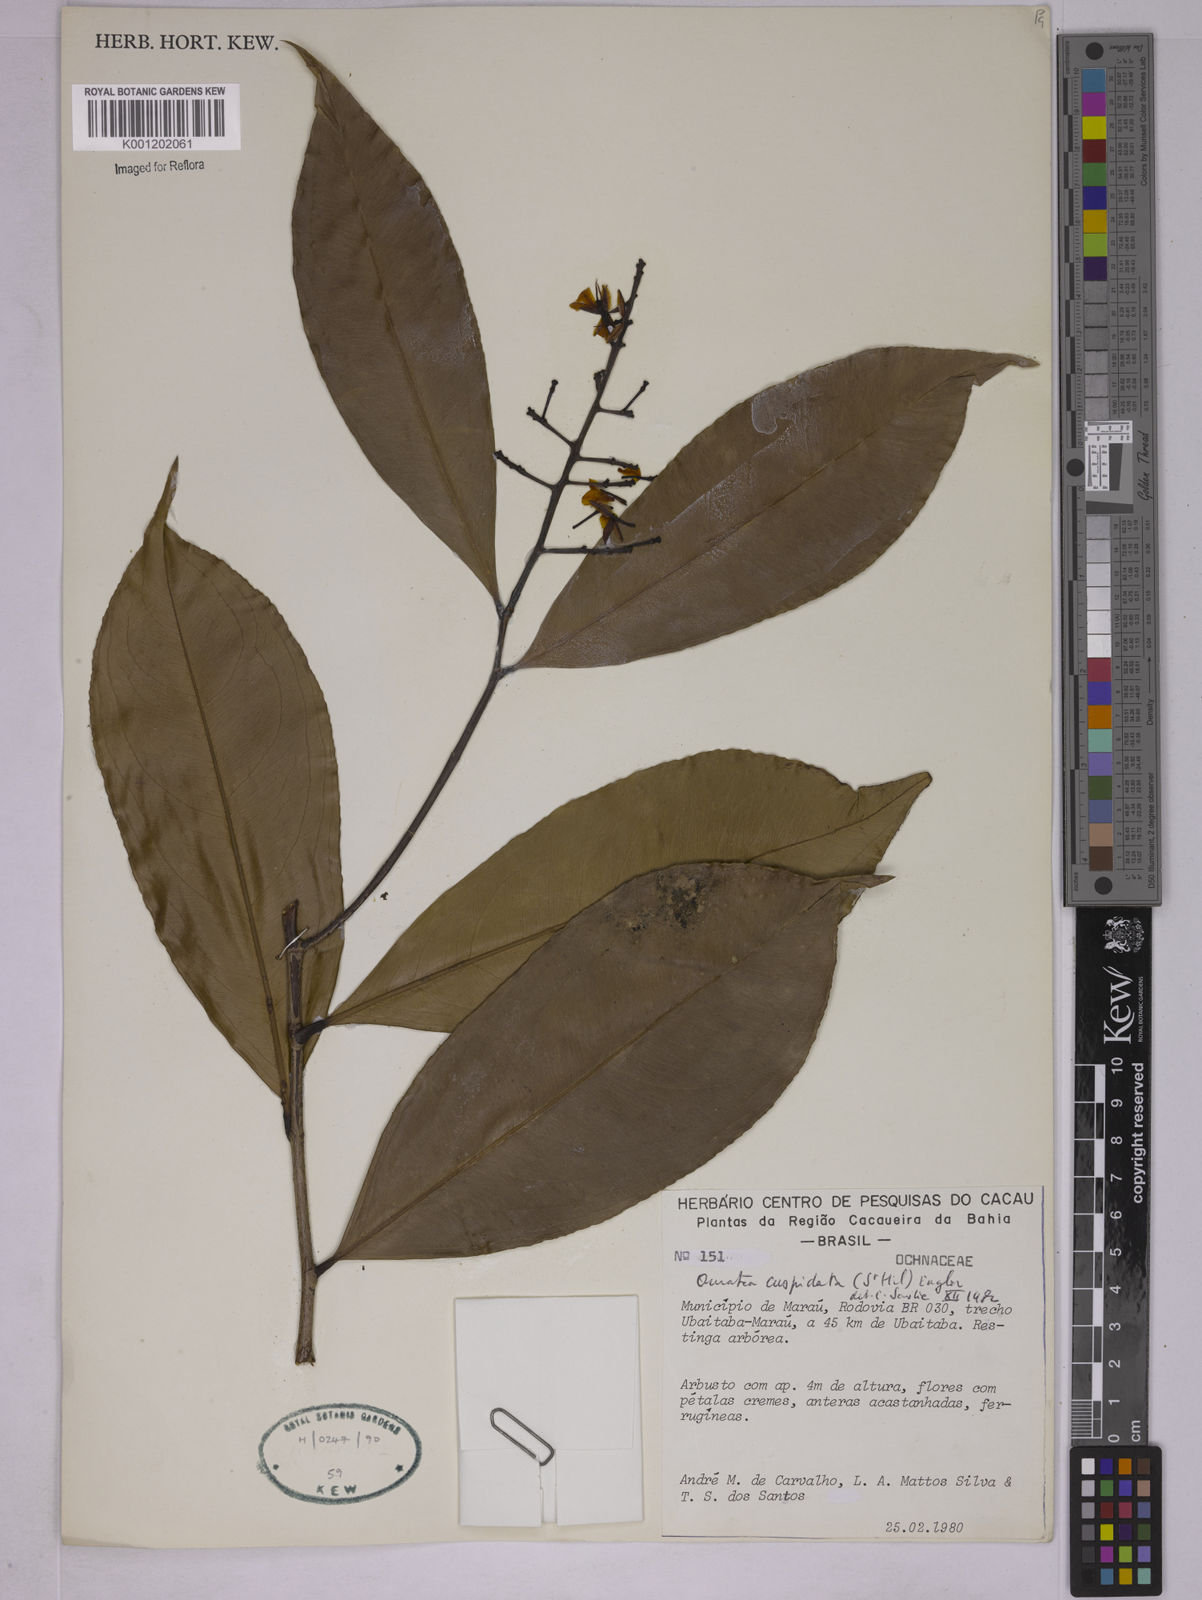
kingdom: Plantae
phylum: Tracheophyta
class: Magnoliopsida
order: Malpighiales
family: Ochnaceae
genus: Ouratea
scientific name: Ouratea cuspidata
